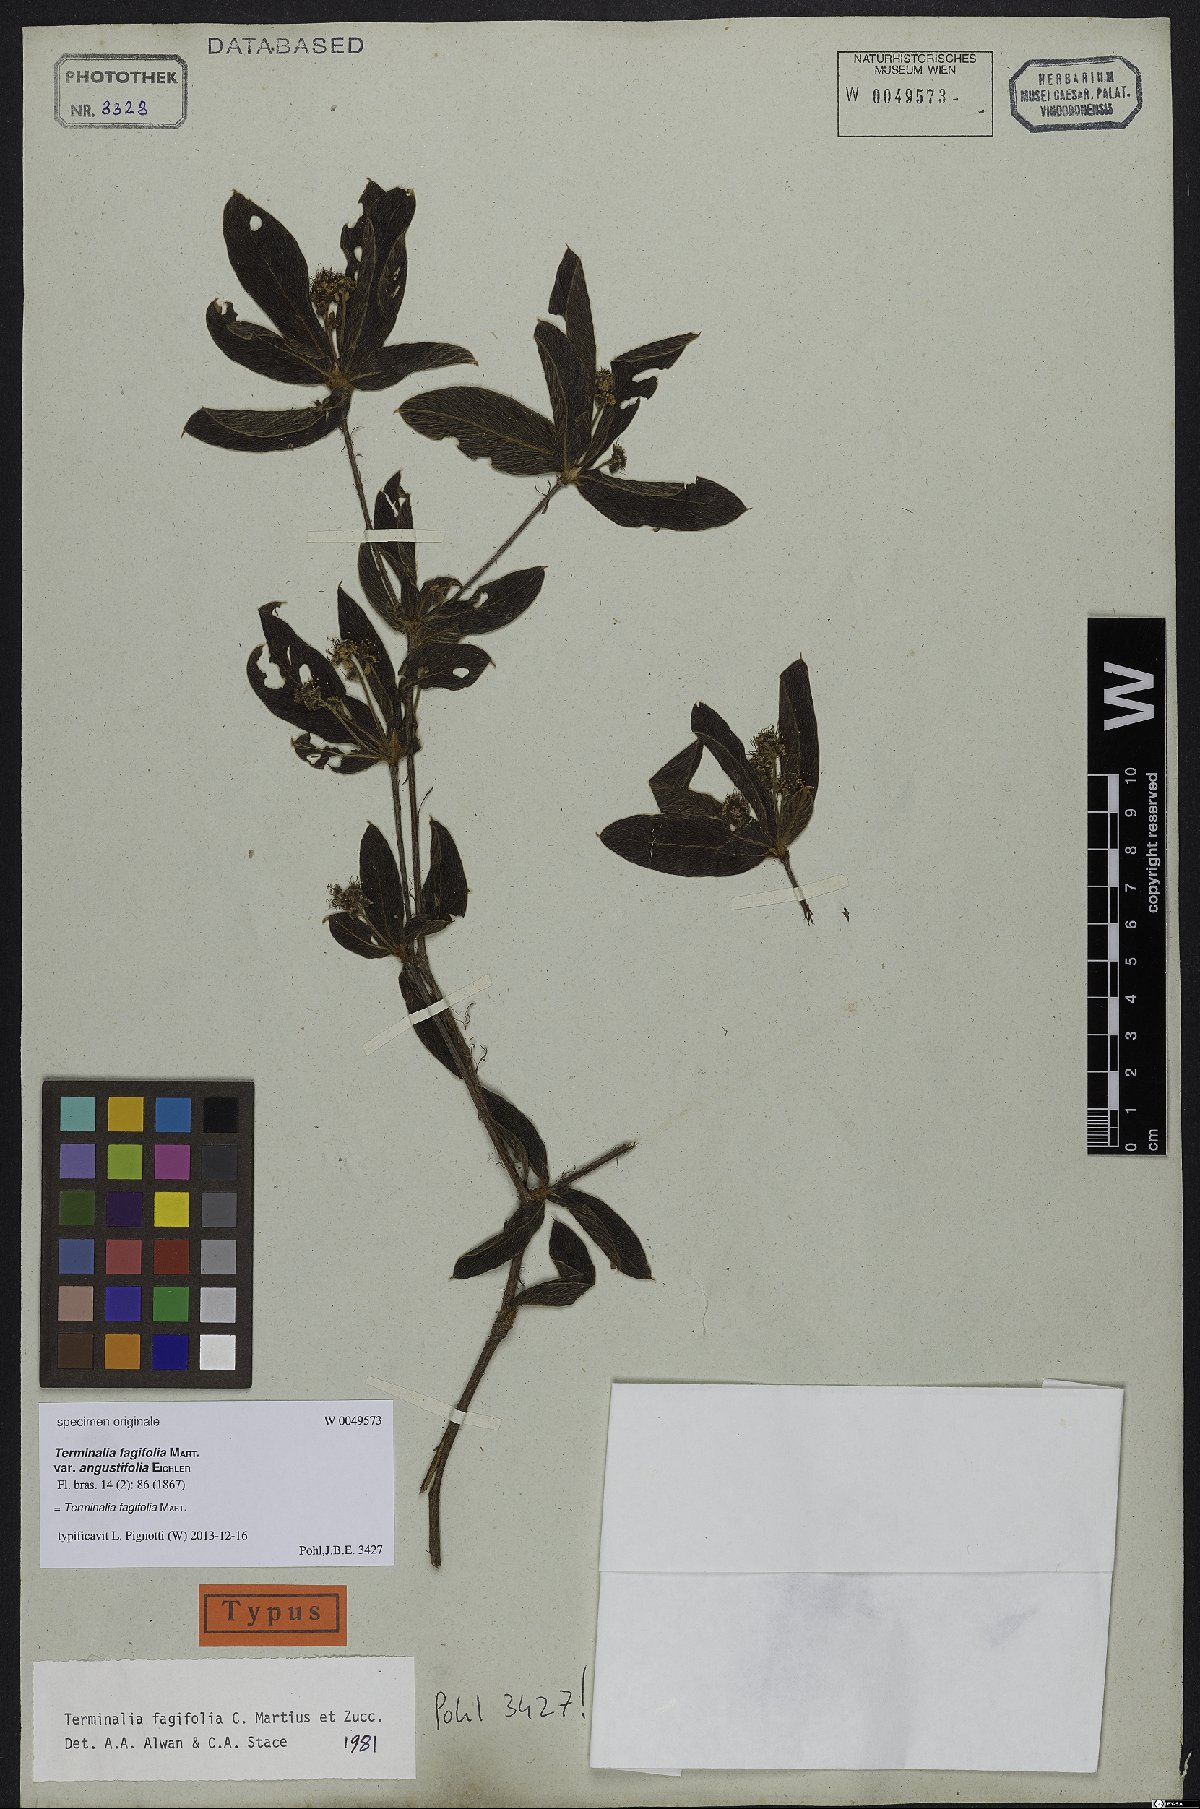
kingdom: Plantae
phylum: Tracheophyta
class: Magnoliopsida
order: Myrtales
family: Combretaceae
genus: Terminalia
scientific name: Terminalia fagifolia
